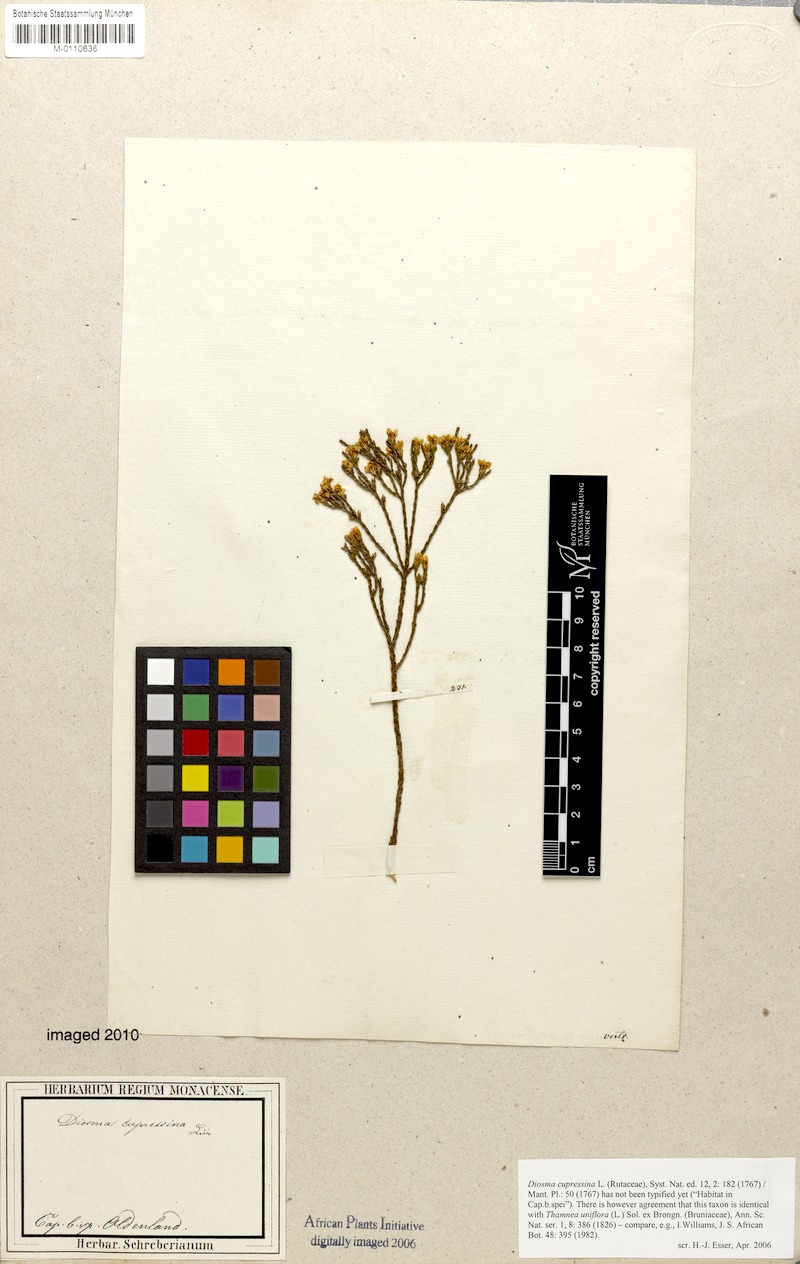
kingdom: Plantae
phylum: Tracheophyta
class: Magnoliopsida
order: Sapindales
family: Rutaceae
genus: Diosma
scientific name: Diosma dichotoma
